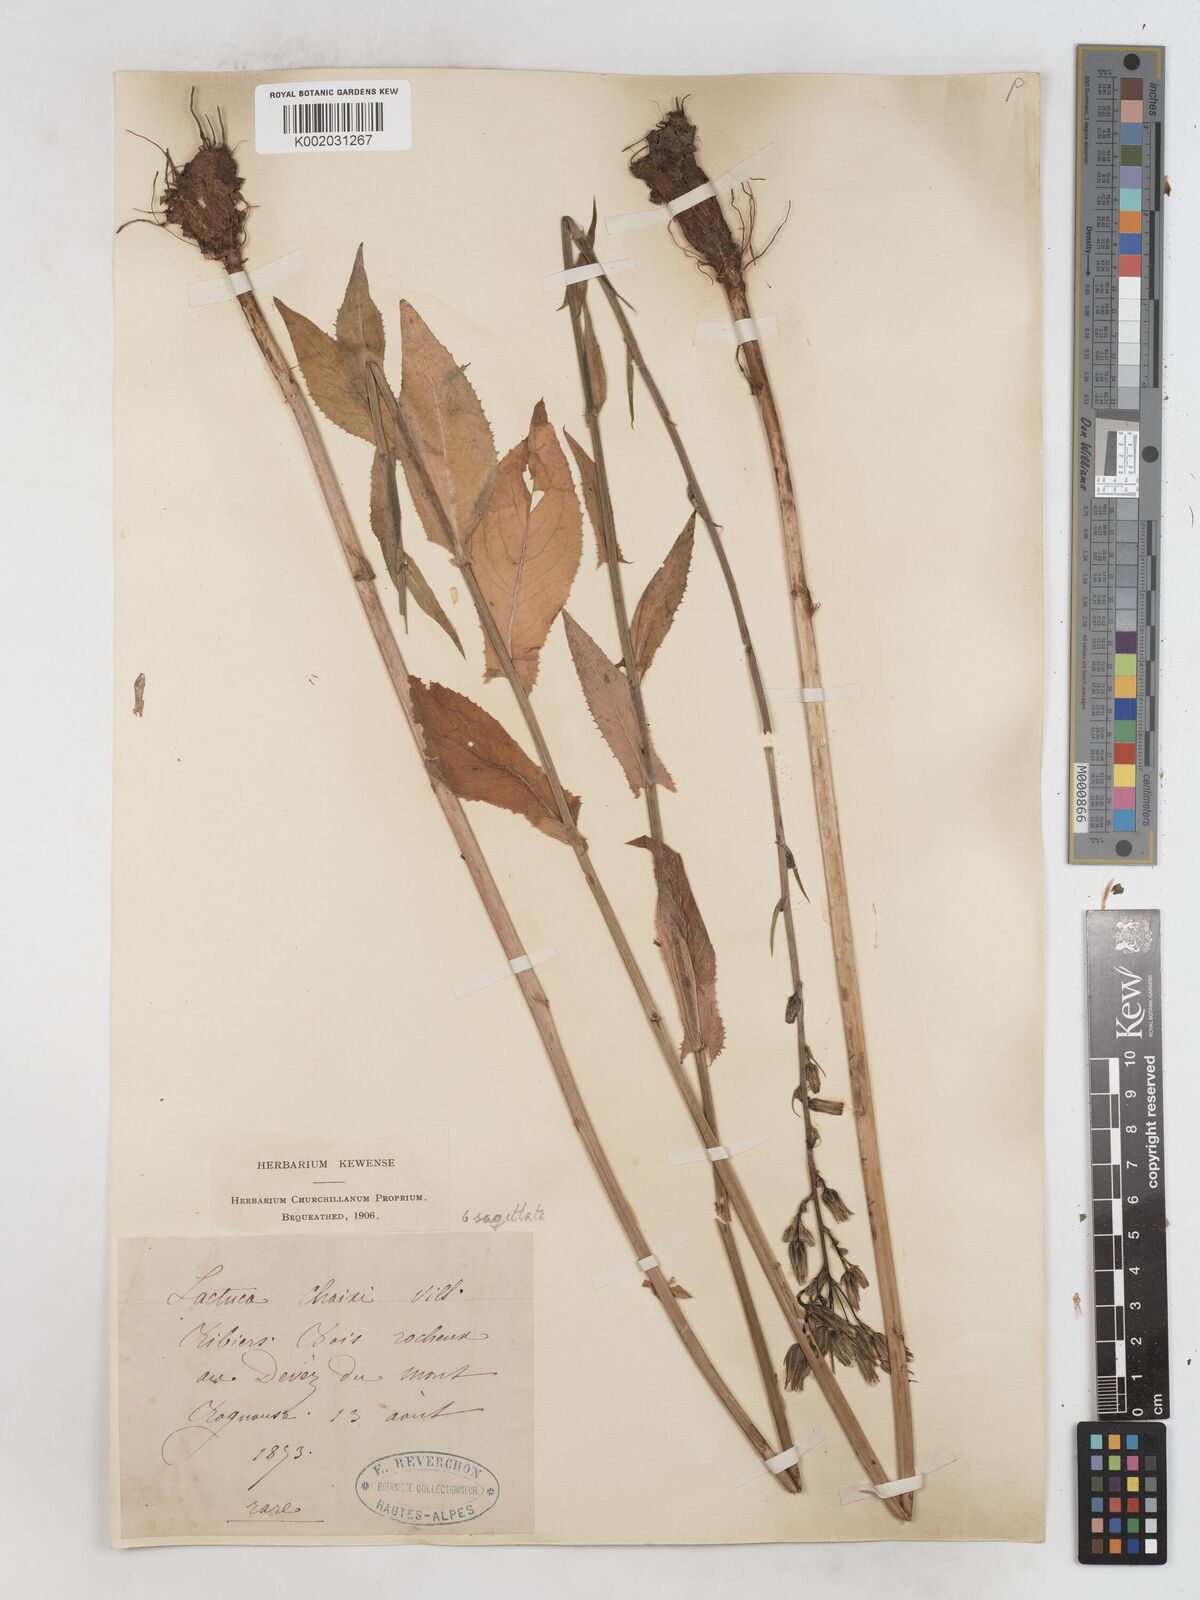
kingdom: Plantae
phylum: Tracheophyta
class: Magnoliopsida
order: Asterales
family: Asteraceae
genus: Lactuca
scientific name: Lactuca quercina
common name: Wild lettuce
